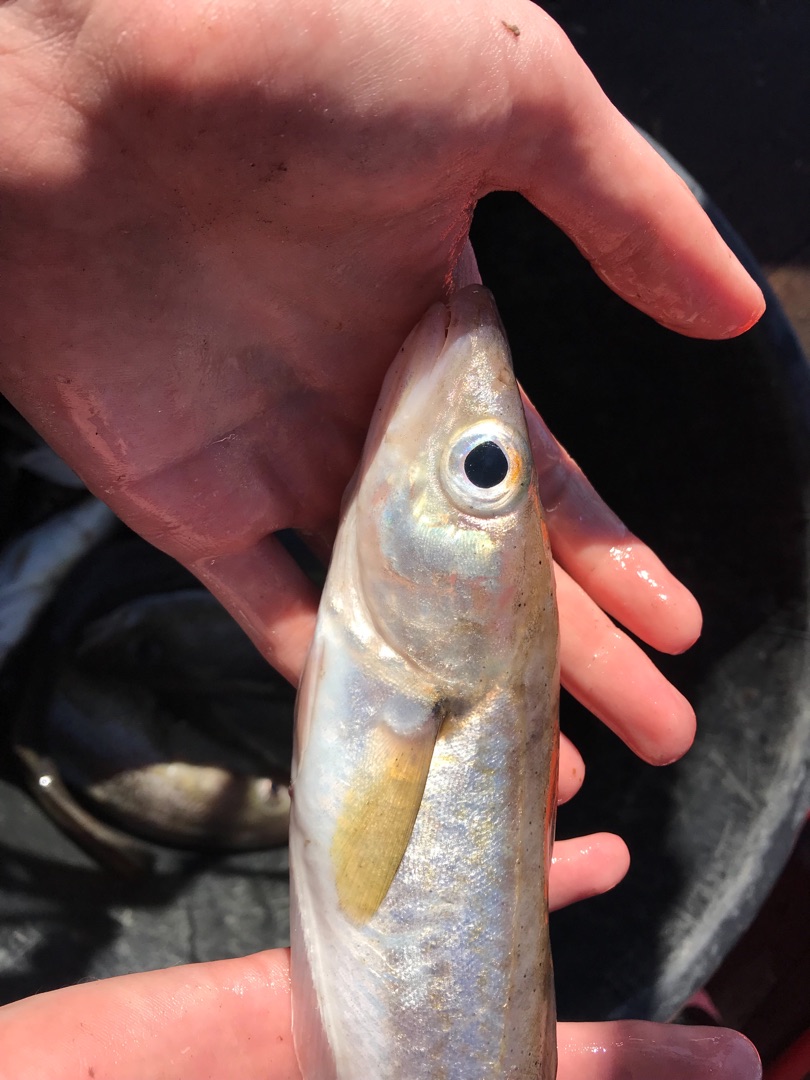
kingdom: Animalia
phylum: Chordata
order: Gadiformes
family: Gadidae
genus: Merlangius
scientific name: Merlangius merlangus
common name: Hvilling
